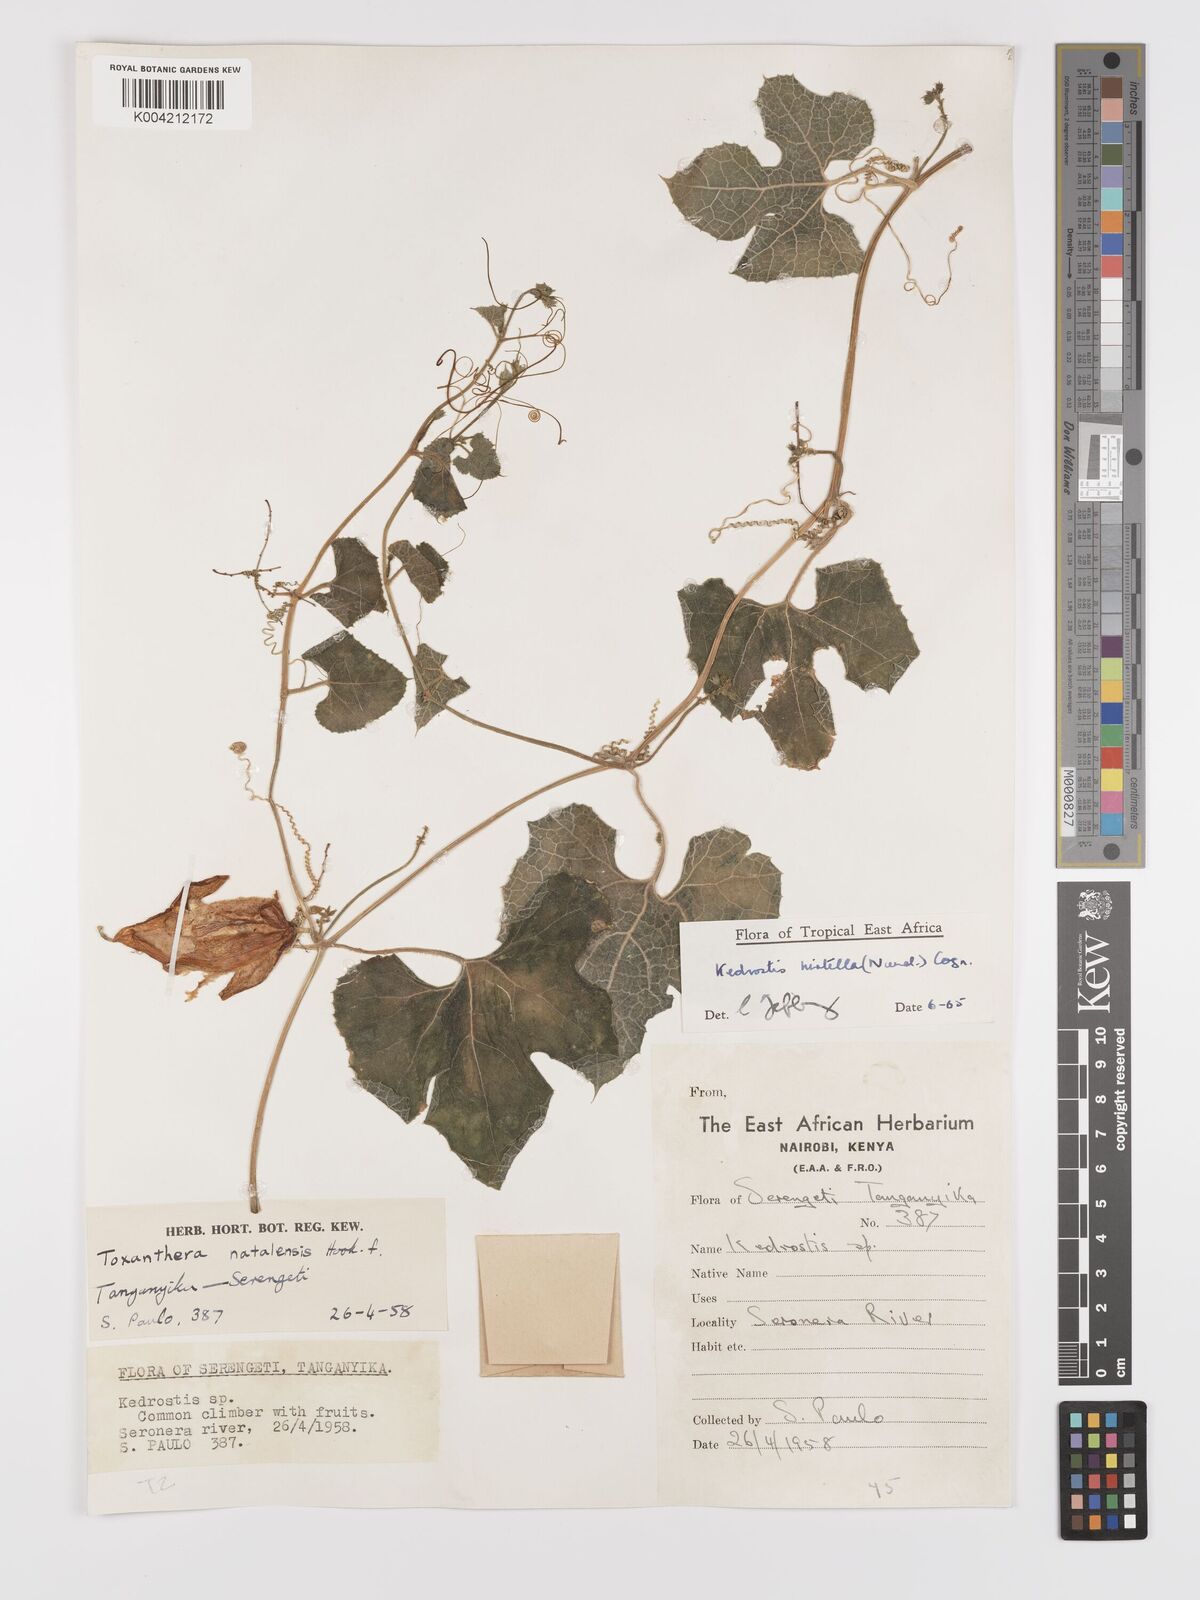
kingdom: Plantae
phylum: Tracheophyta
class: Magnoliopsida
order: Cucurbitales
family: Cucurbitaceae
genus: Kedrostis
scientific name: Kedrostis leloja
